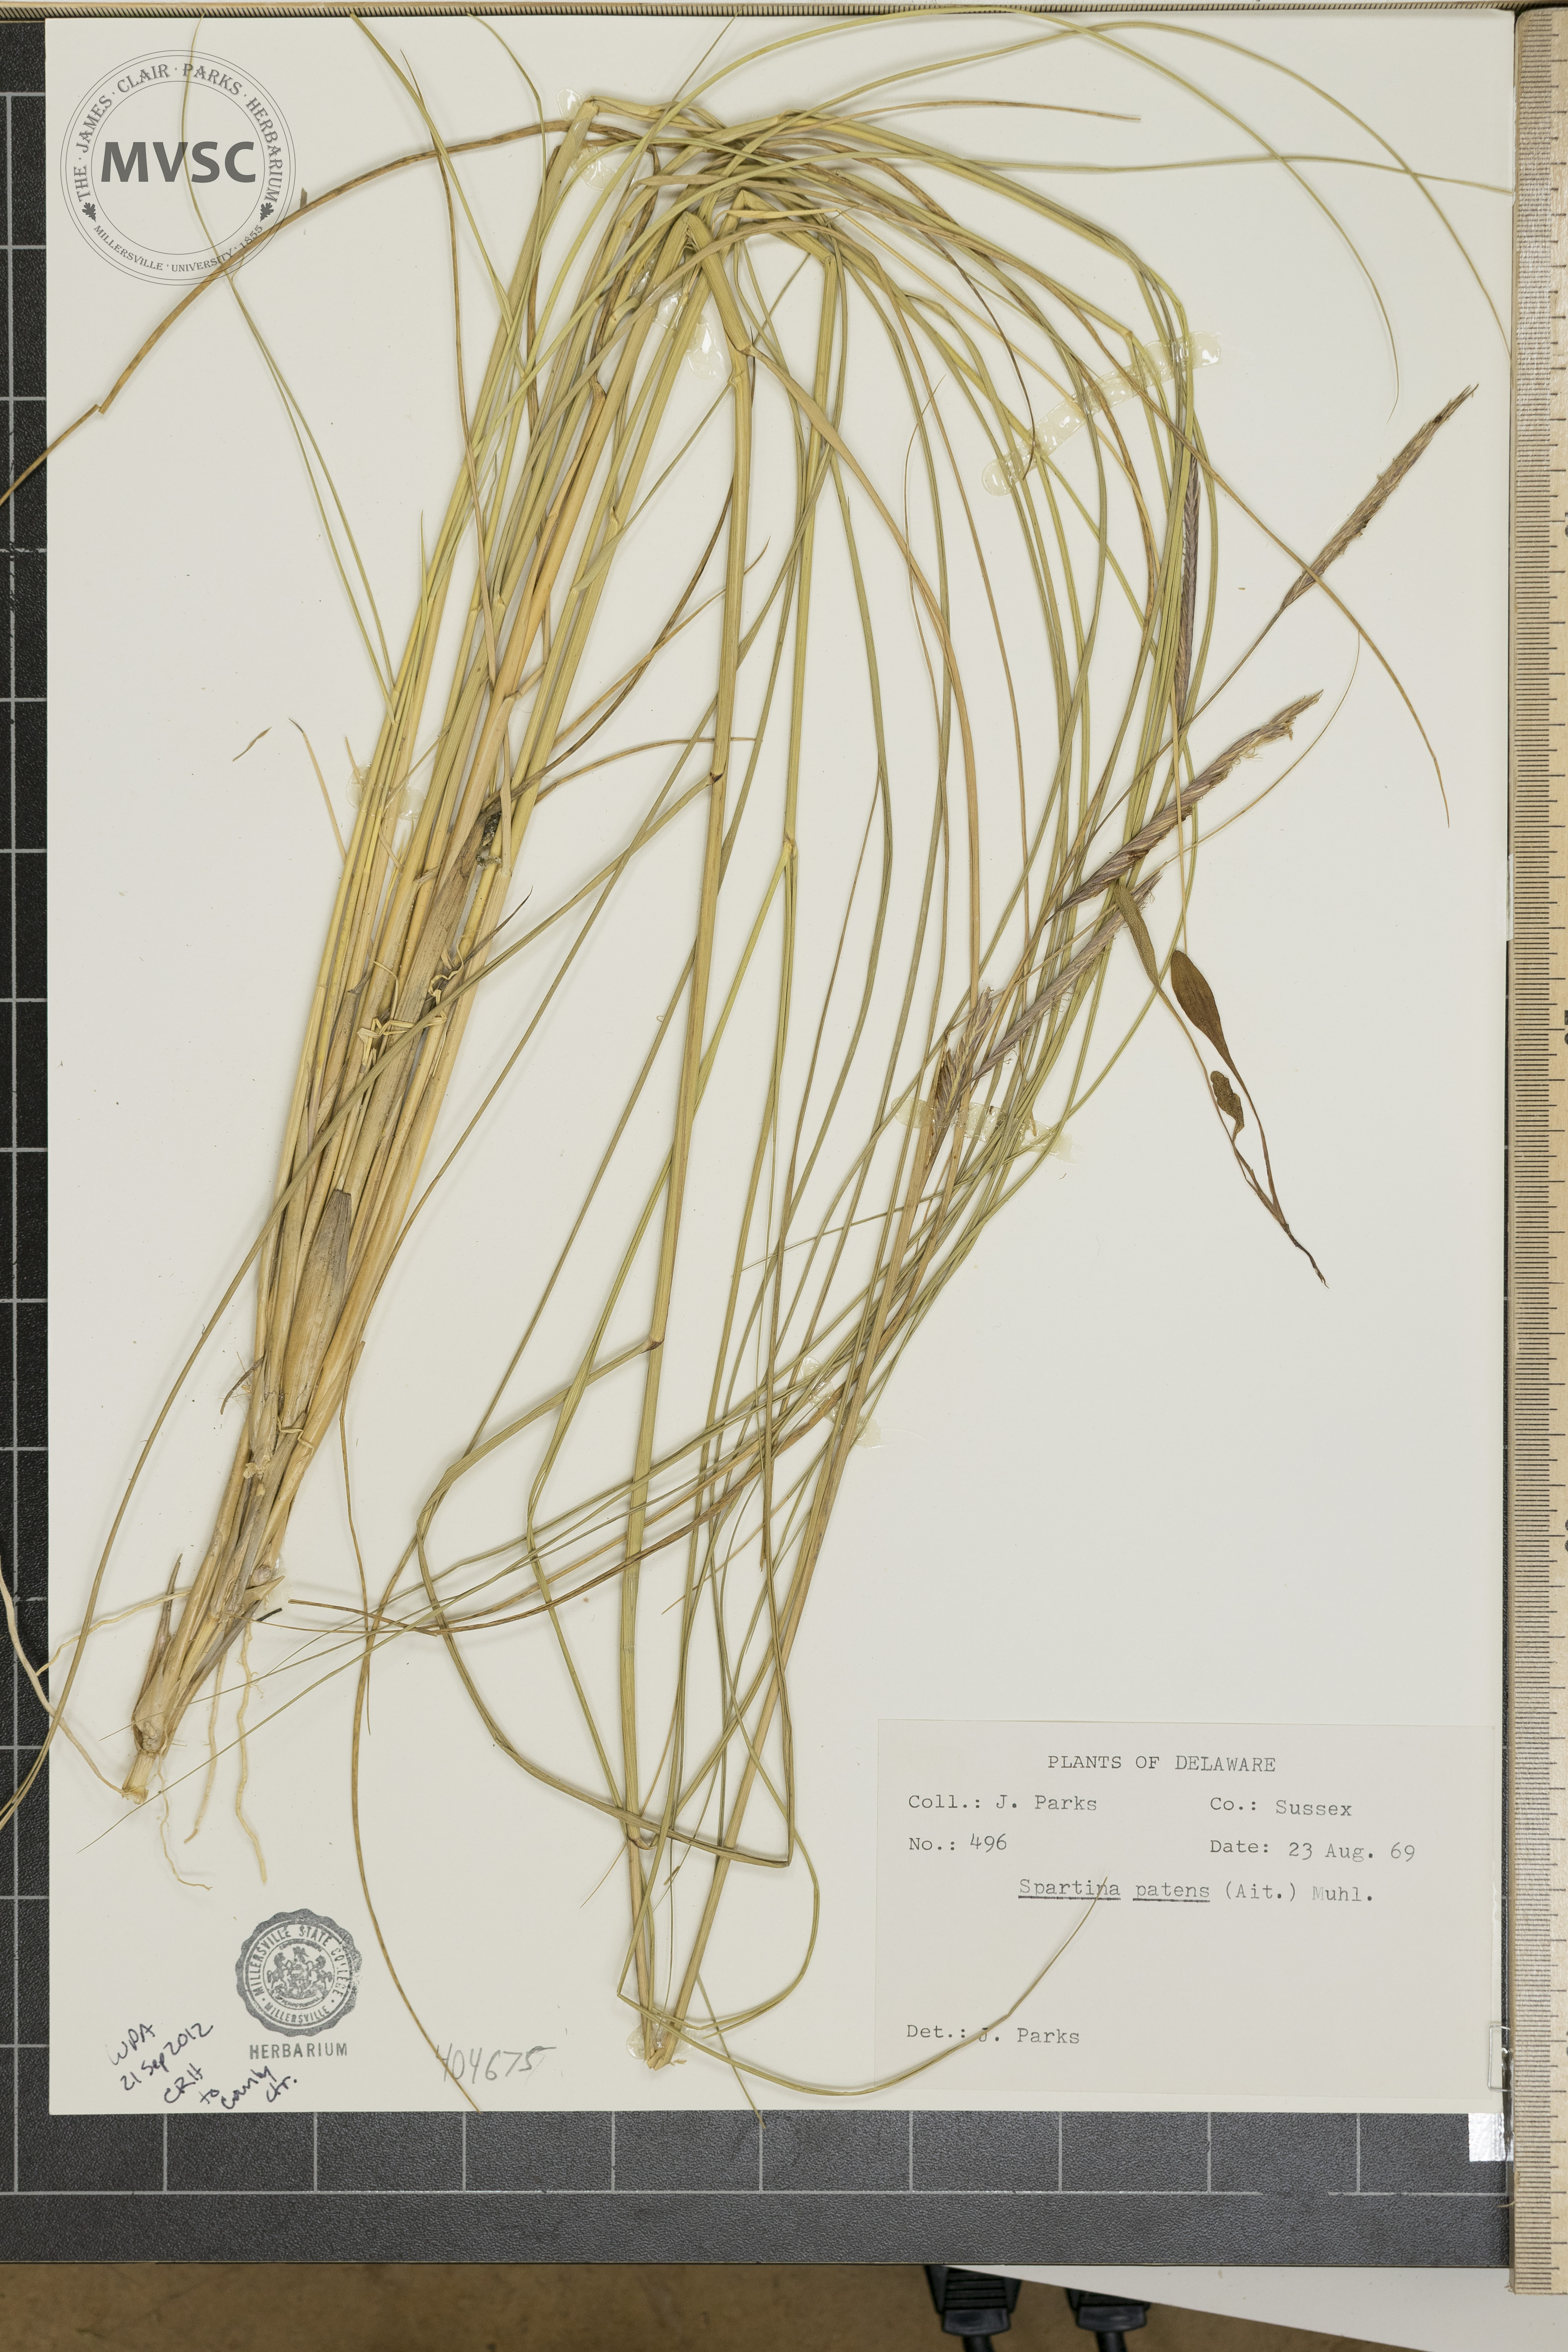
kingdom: Plantae
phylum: Tracheophyta
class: Liliopsida
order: Poales
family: Poaceae
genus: Sporobolus
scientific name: Sporobolus pumilus
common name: Highwater grass
